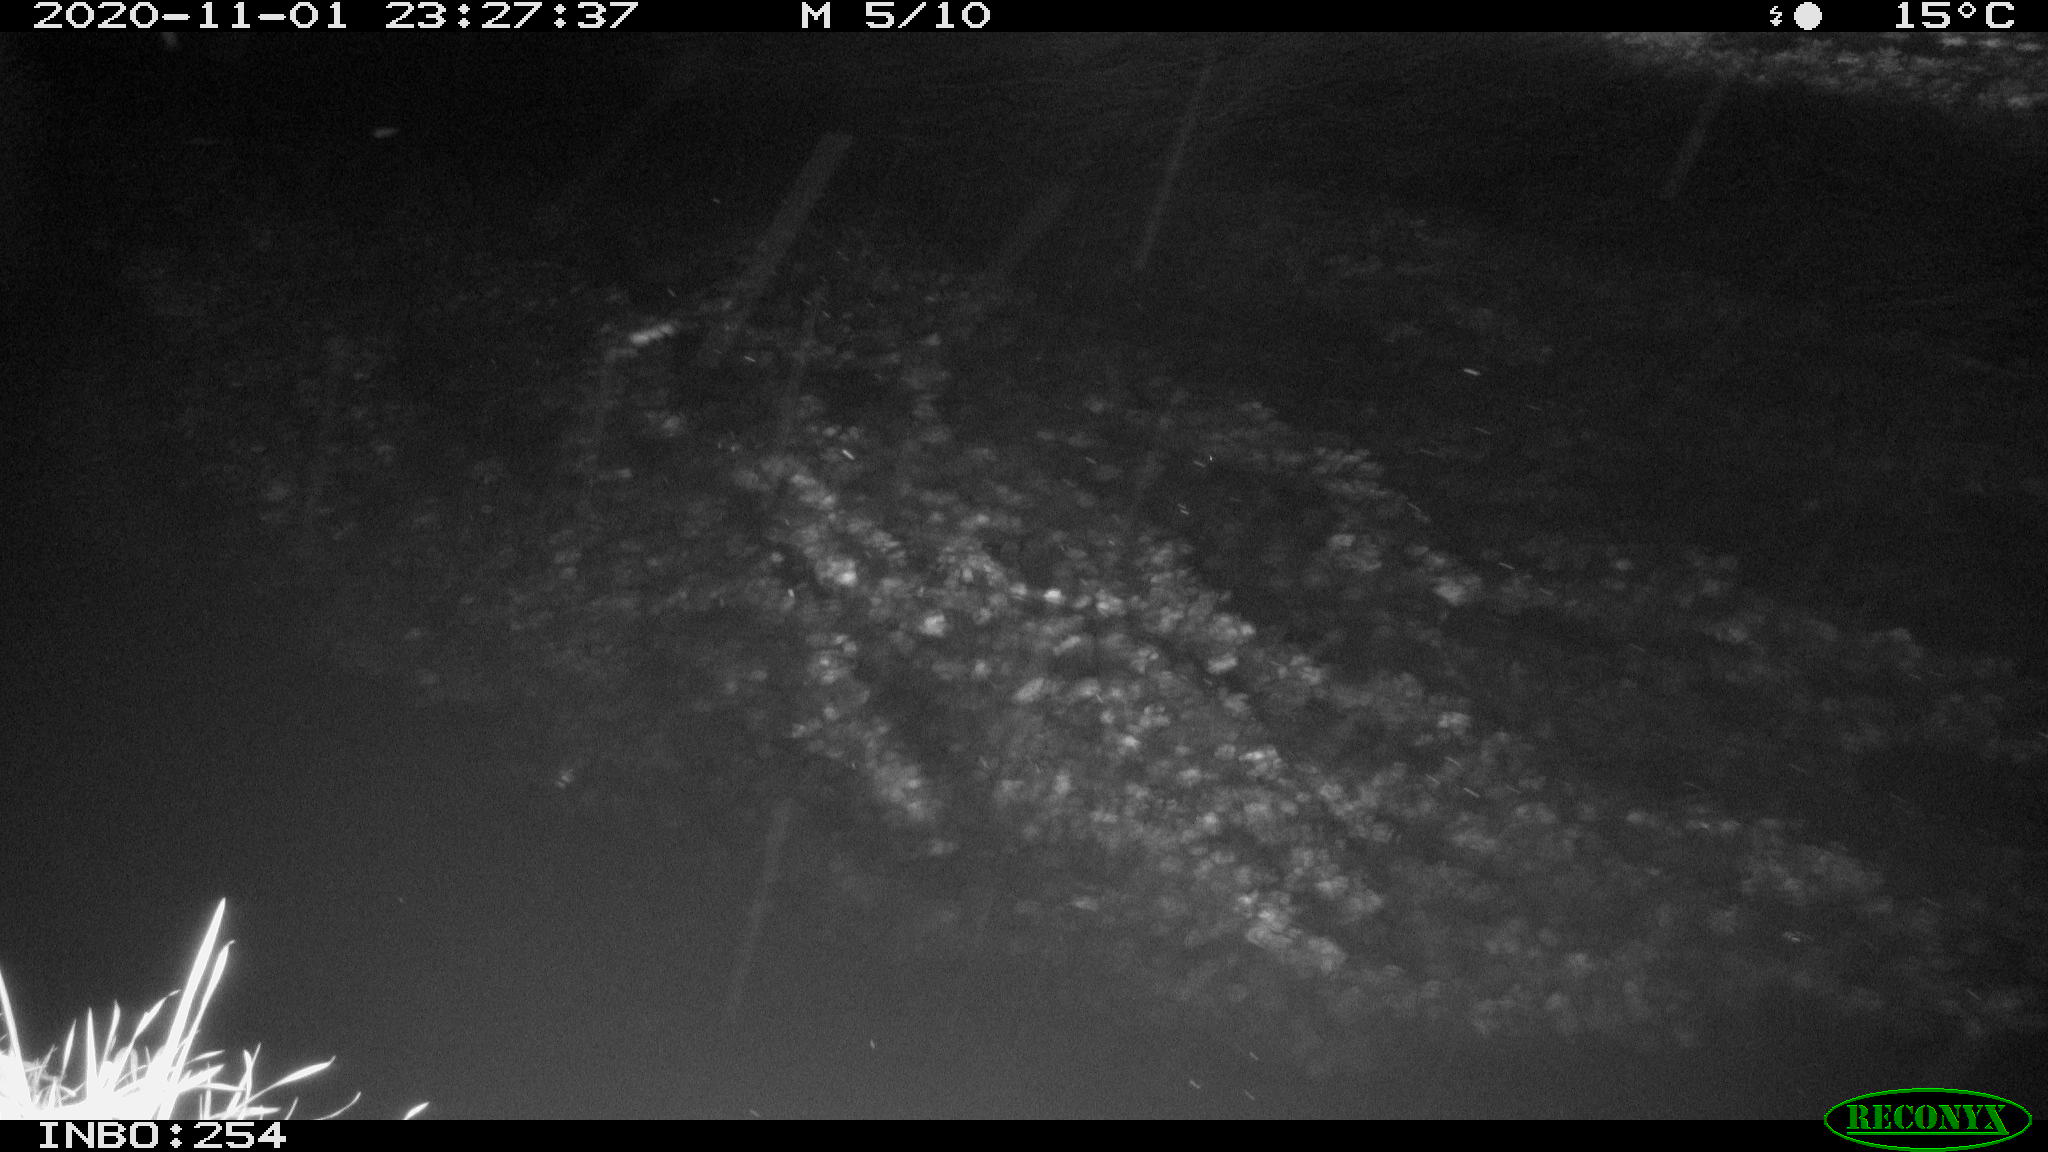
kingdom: Animalia
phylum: Chordata
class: Aves
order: Anseriformes
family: Anatidae
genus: Anas
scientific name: Anas platyrhynchos
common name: Mallard
